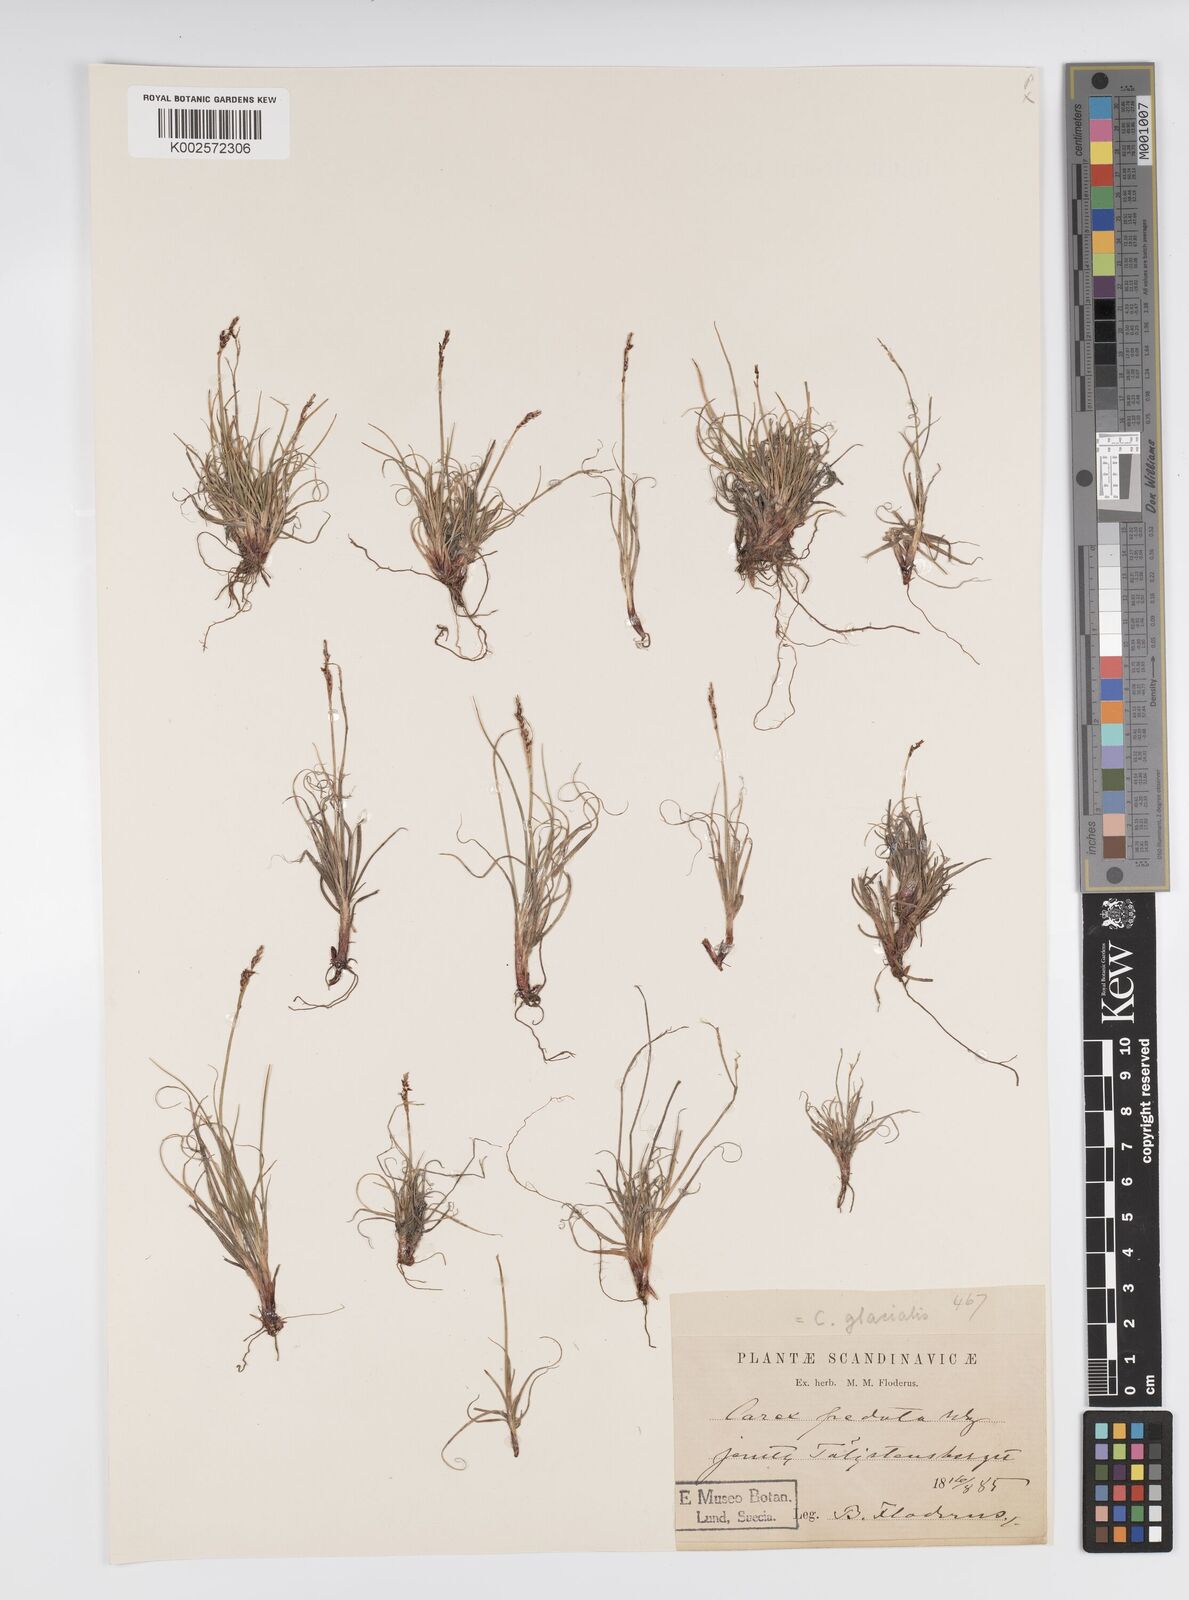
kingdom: Plantae
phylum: Tracheophyta
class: Liliopsida
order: Poales
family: Cyperaceae
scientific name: Cyperaceae
